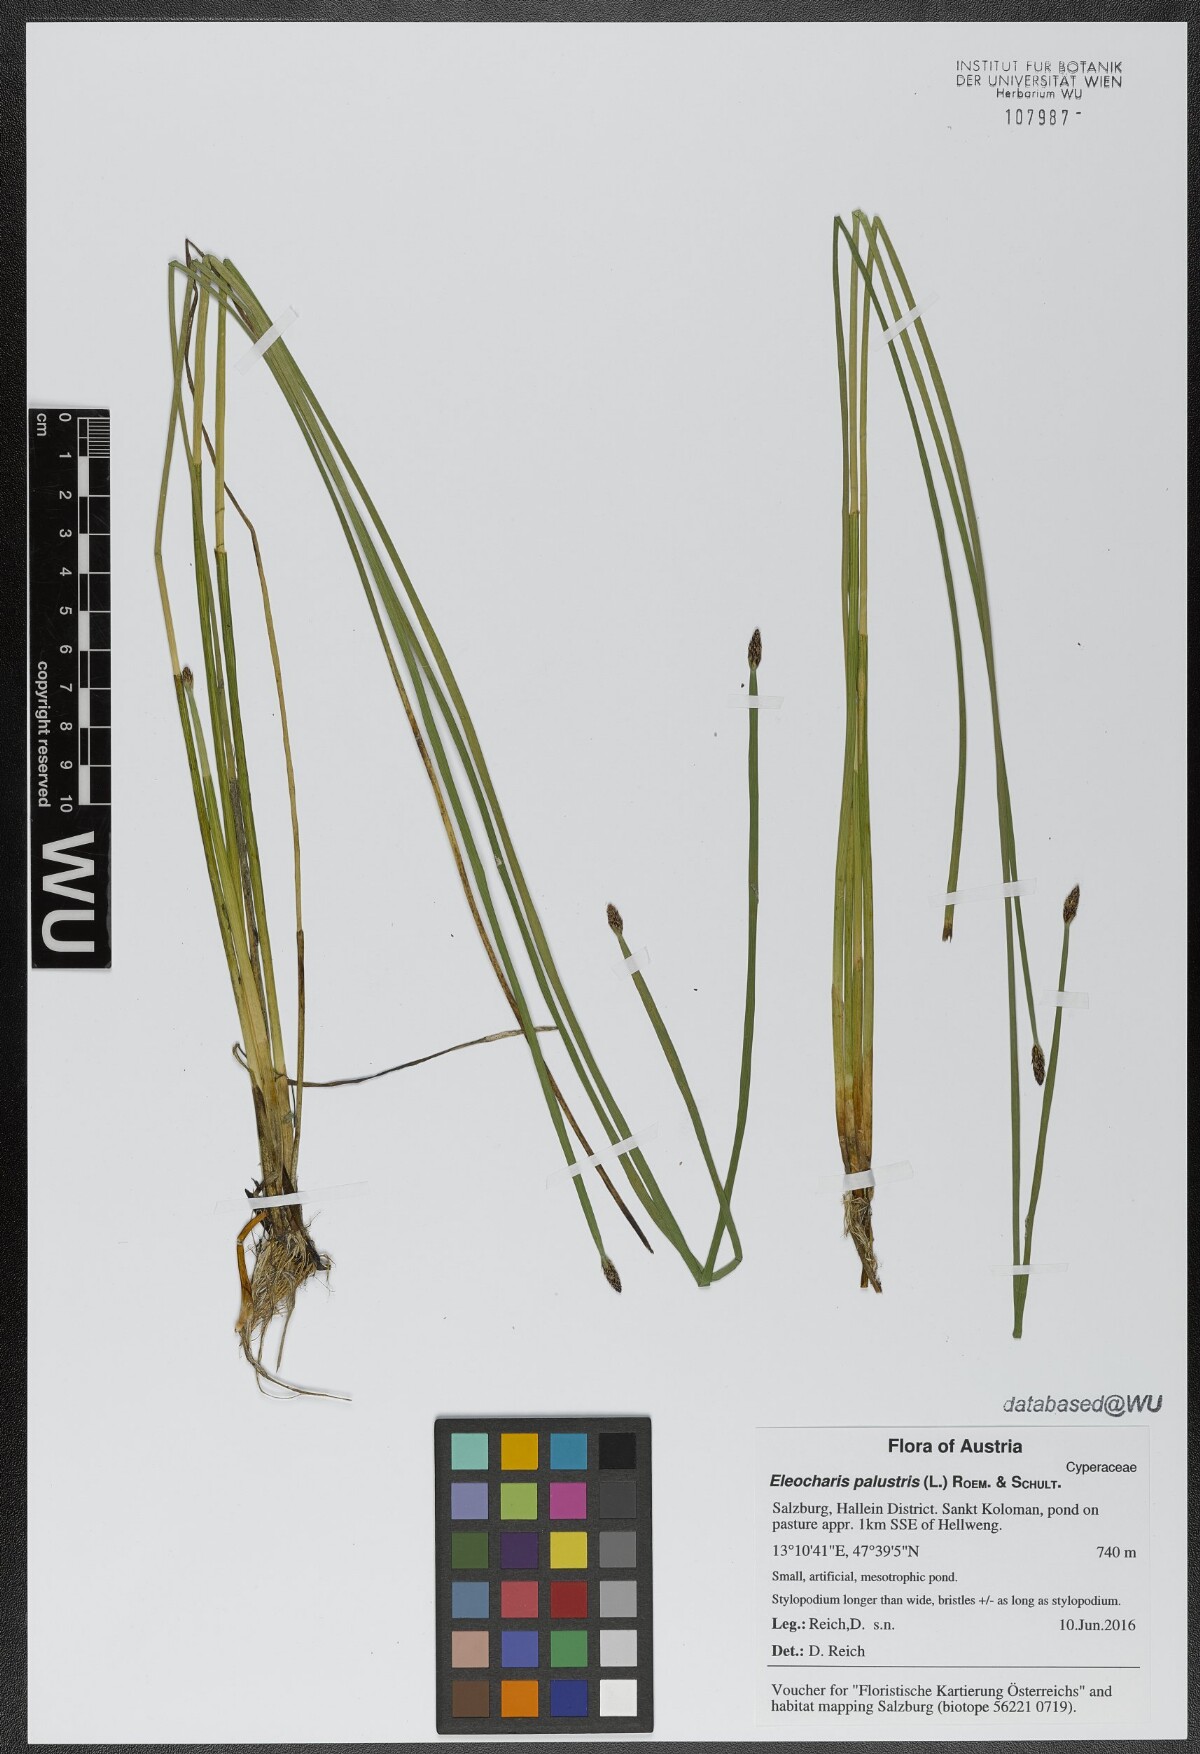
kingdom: Plantae
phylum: Tracheophyta
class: Liliopsida
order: Poales
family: Cyperaceae
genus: Eleocharis
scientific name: Eleocharis palustris
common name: Common spike-rush
